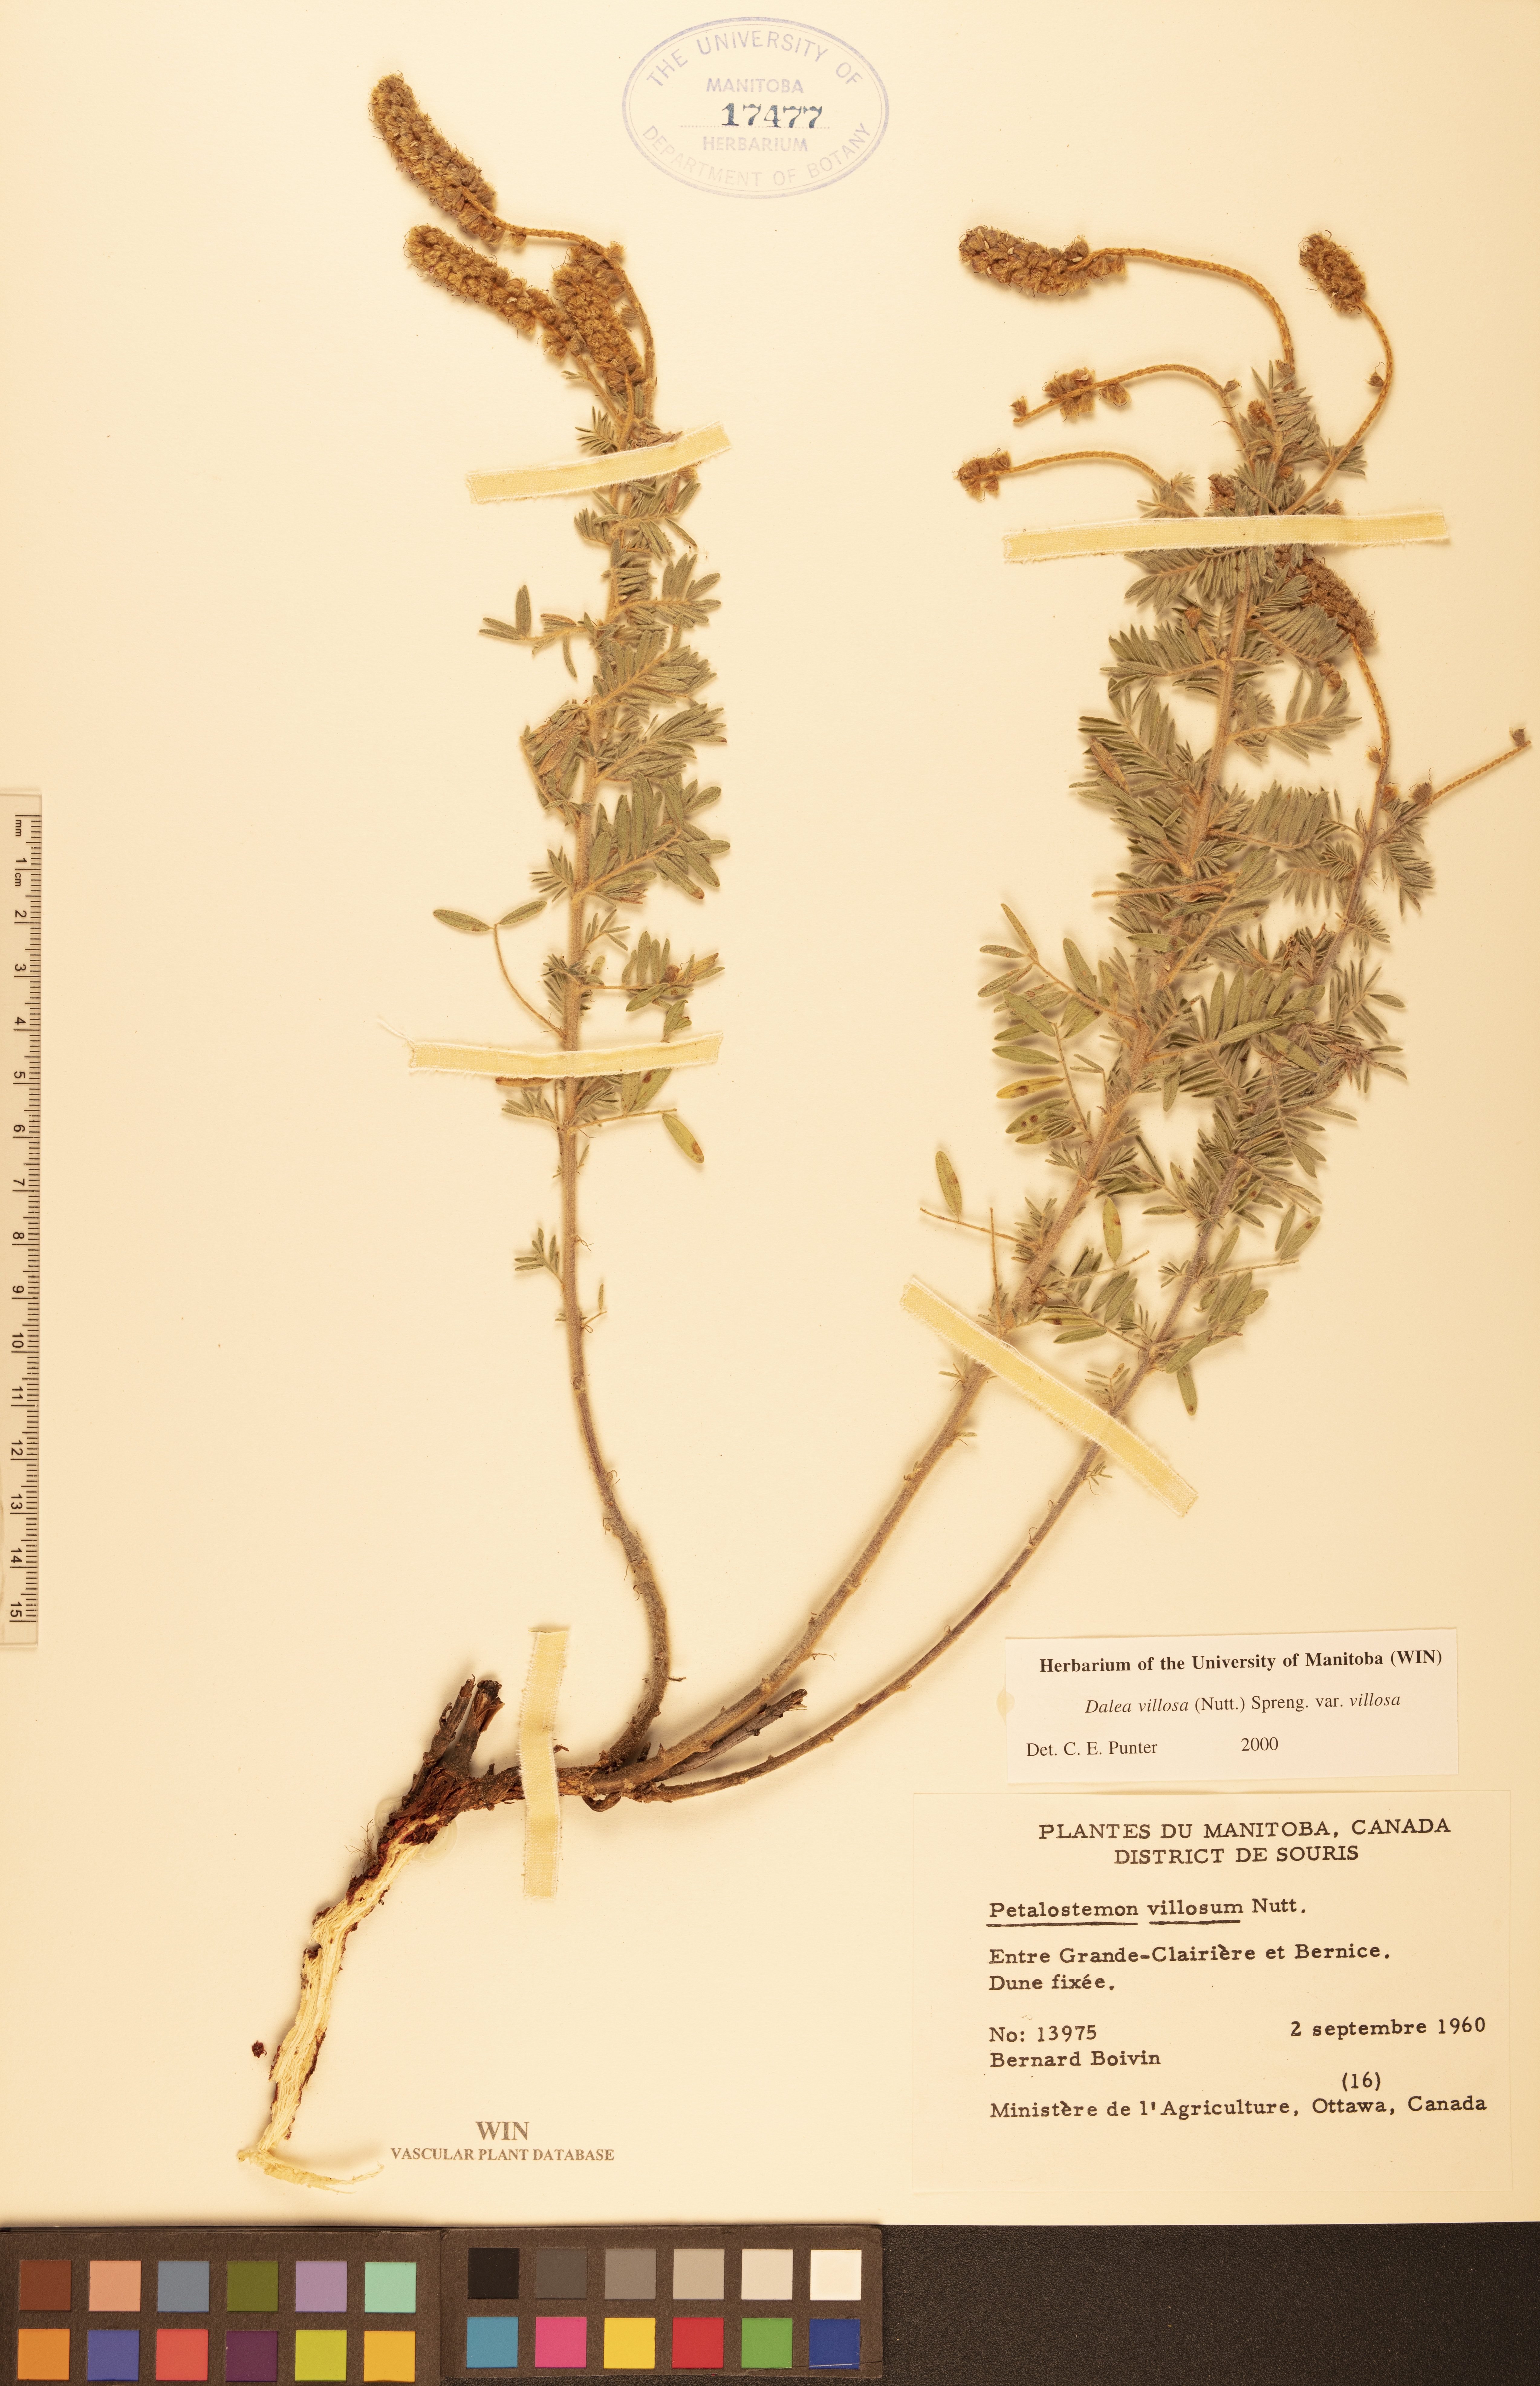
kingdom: Plantae
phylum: Tracheophyta
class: Magnoliopsida
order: Fabales
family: Fabaceae
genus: Dalea
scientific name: Dalea villosa
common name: Silky prairie-clover
